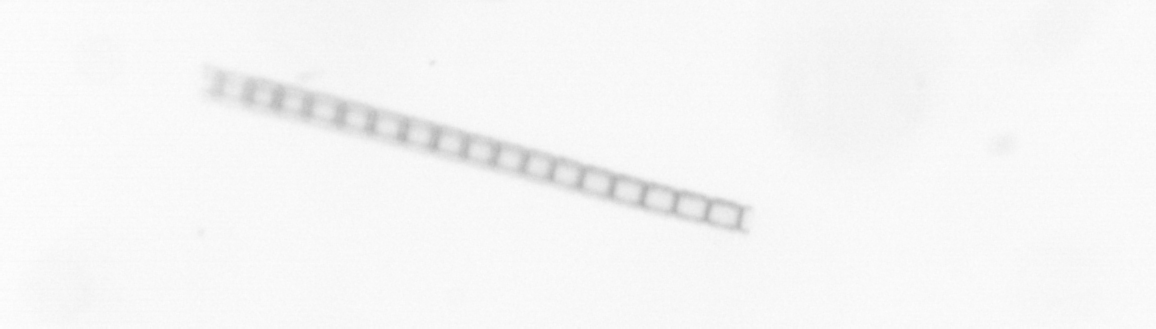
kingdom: Chromista
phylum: Ochrophyta
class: Bacillariophyceae
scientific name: Bacillariophyceae
